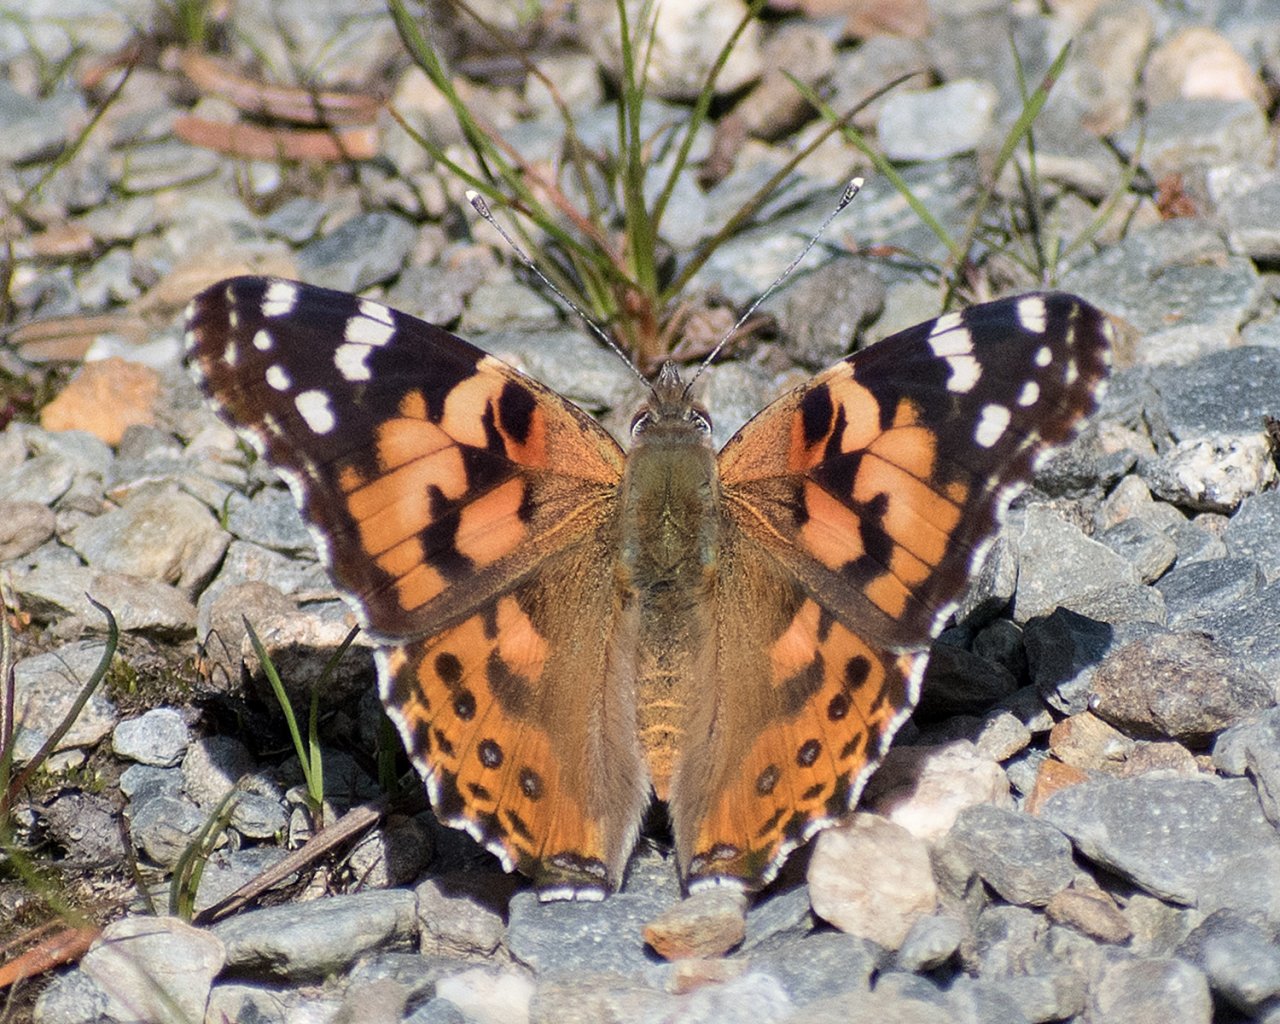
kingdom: Animalia
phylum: Arthropoda
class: Insecta
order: Lepidoptera
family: Nymphalidae
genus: Vanessa
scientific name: Vanessa cardui
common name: Painted Lady
